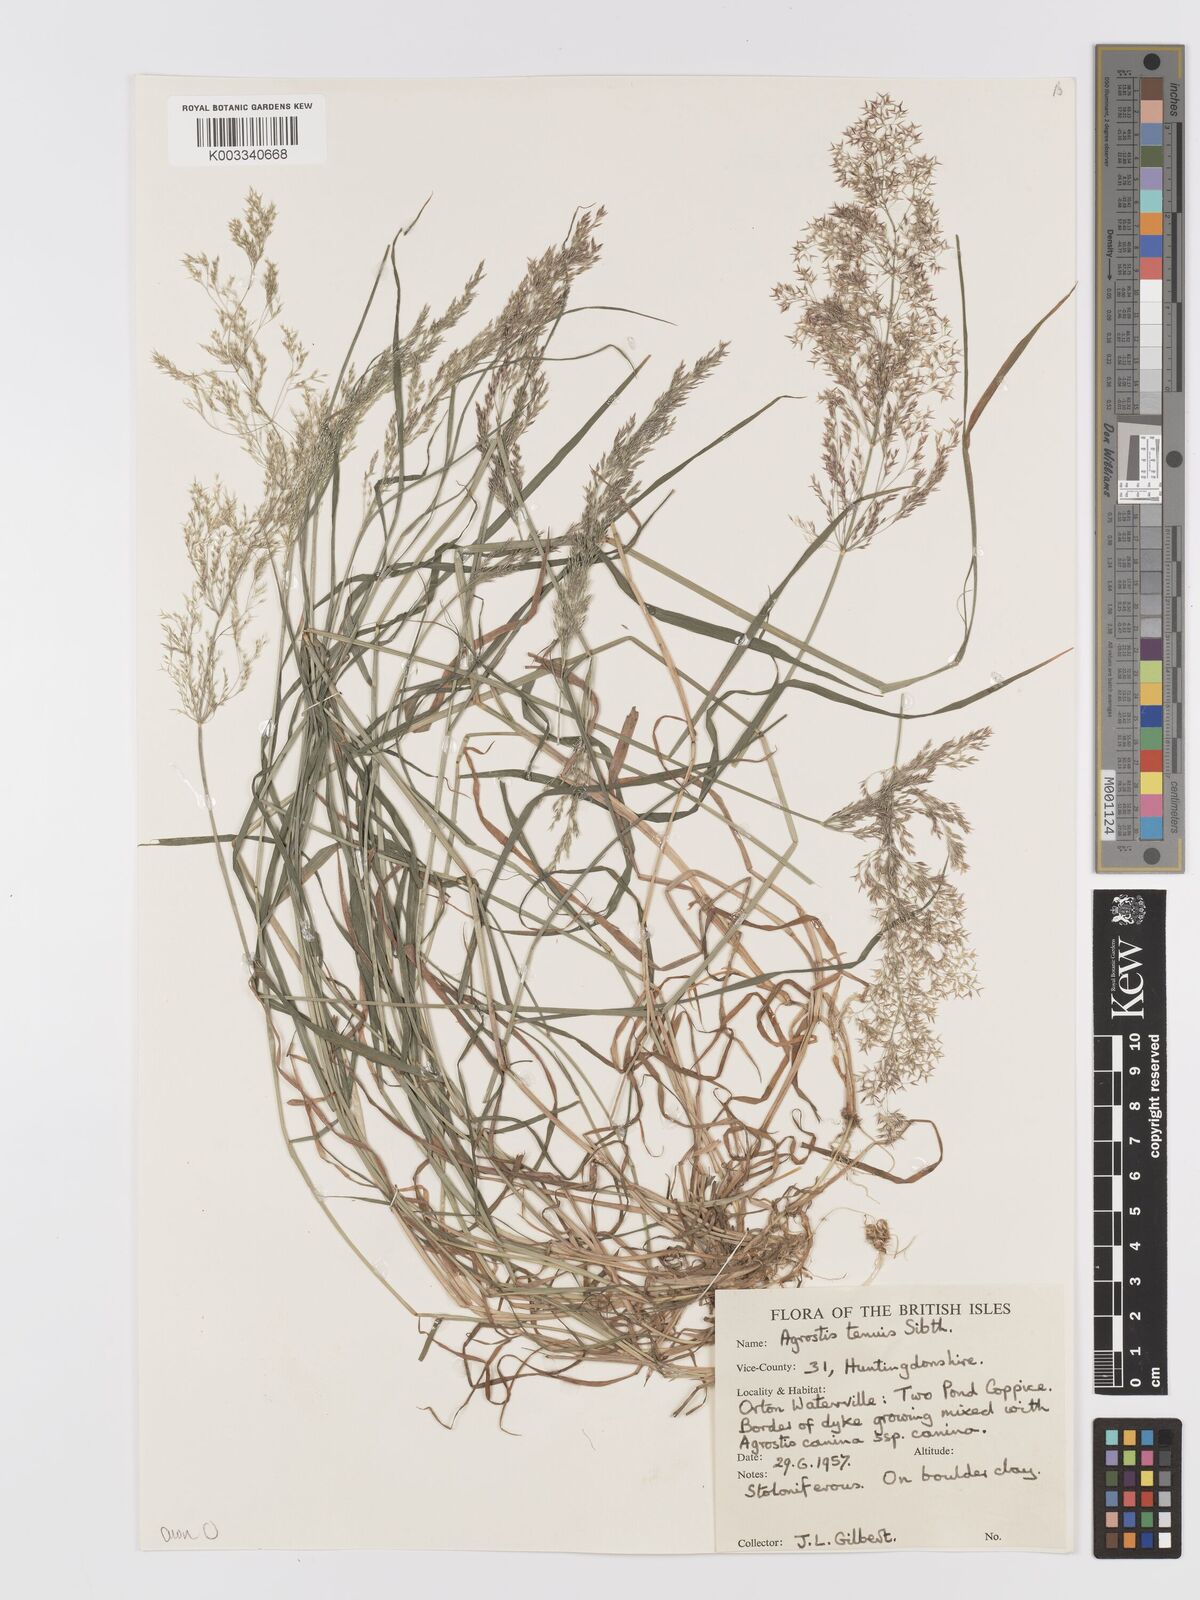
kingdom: Plantae
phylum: Tracheophyta
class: Liliopsida
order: Poales
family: Poaceae
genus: Agrostis
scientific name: Agrostis capillaris
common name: Colonial bentgrass
